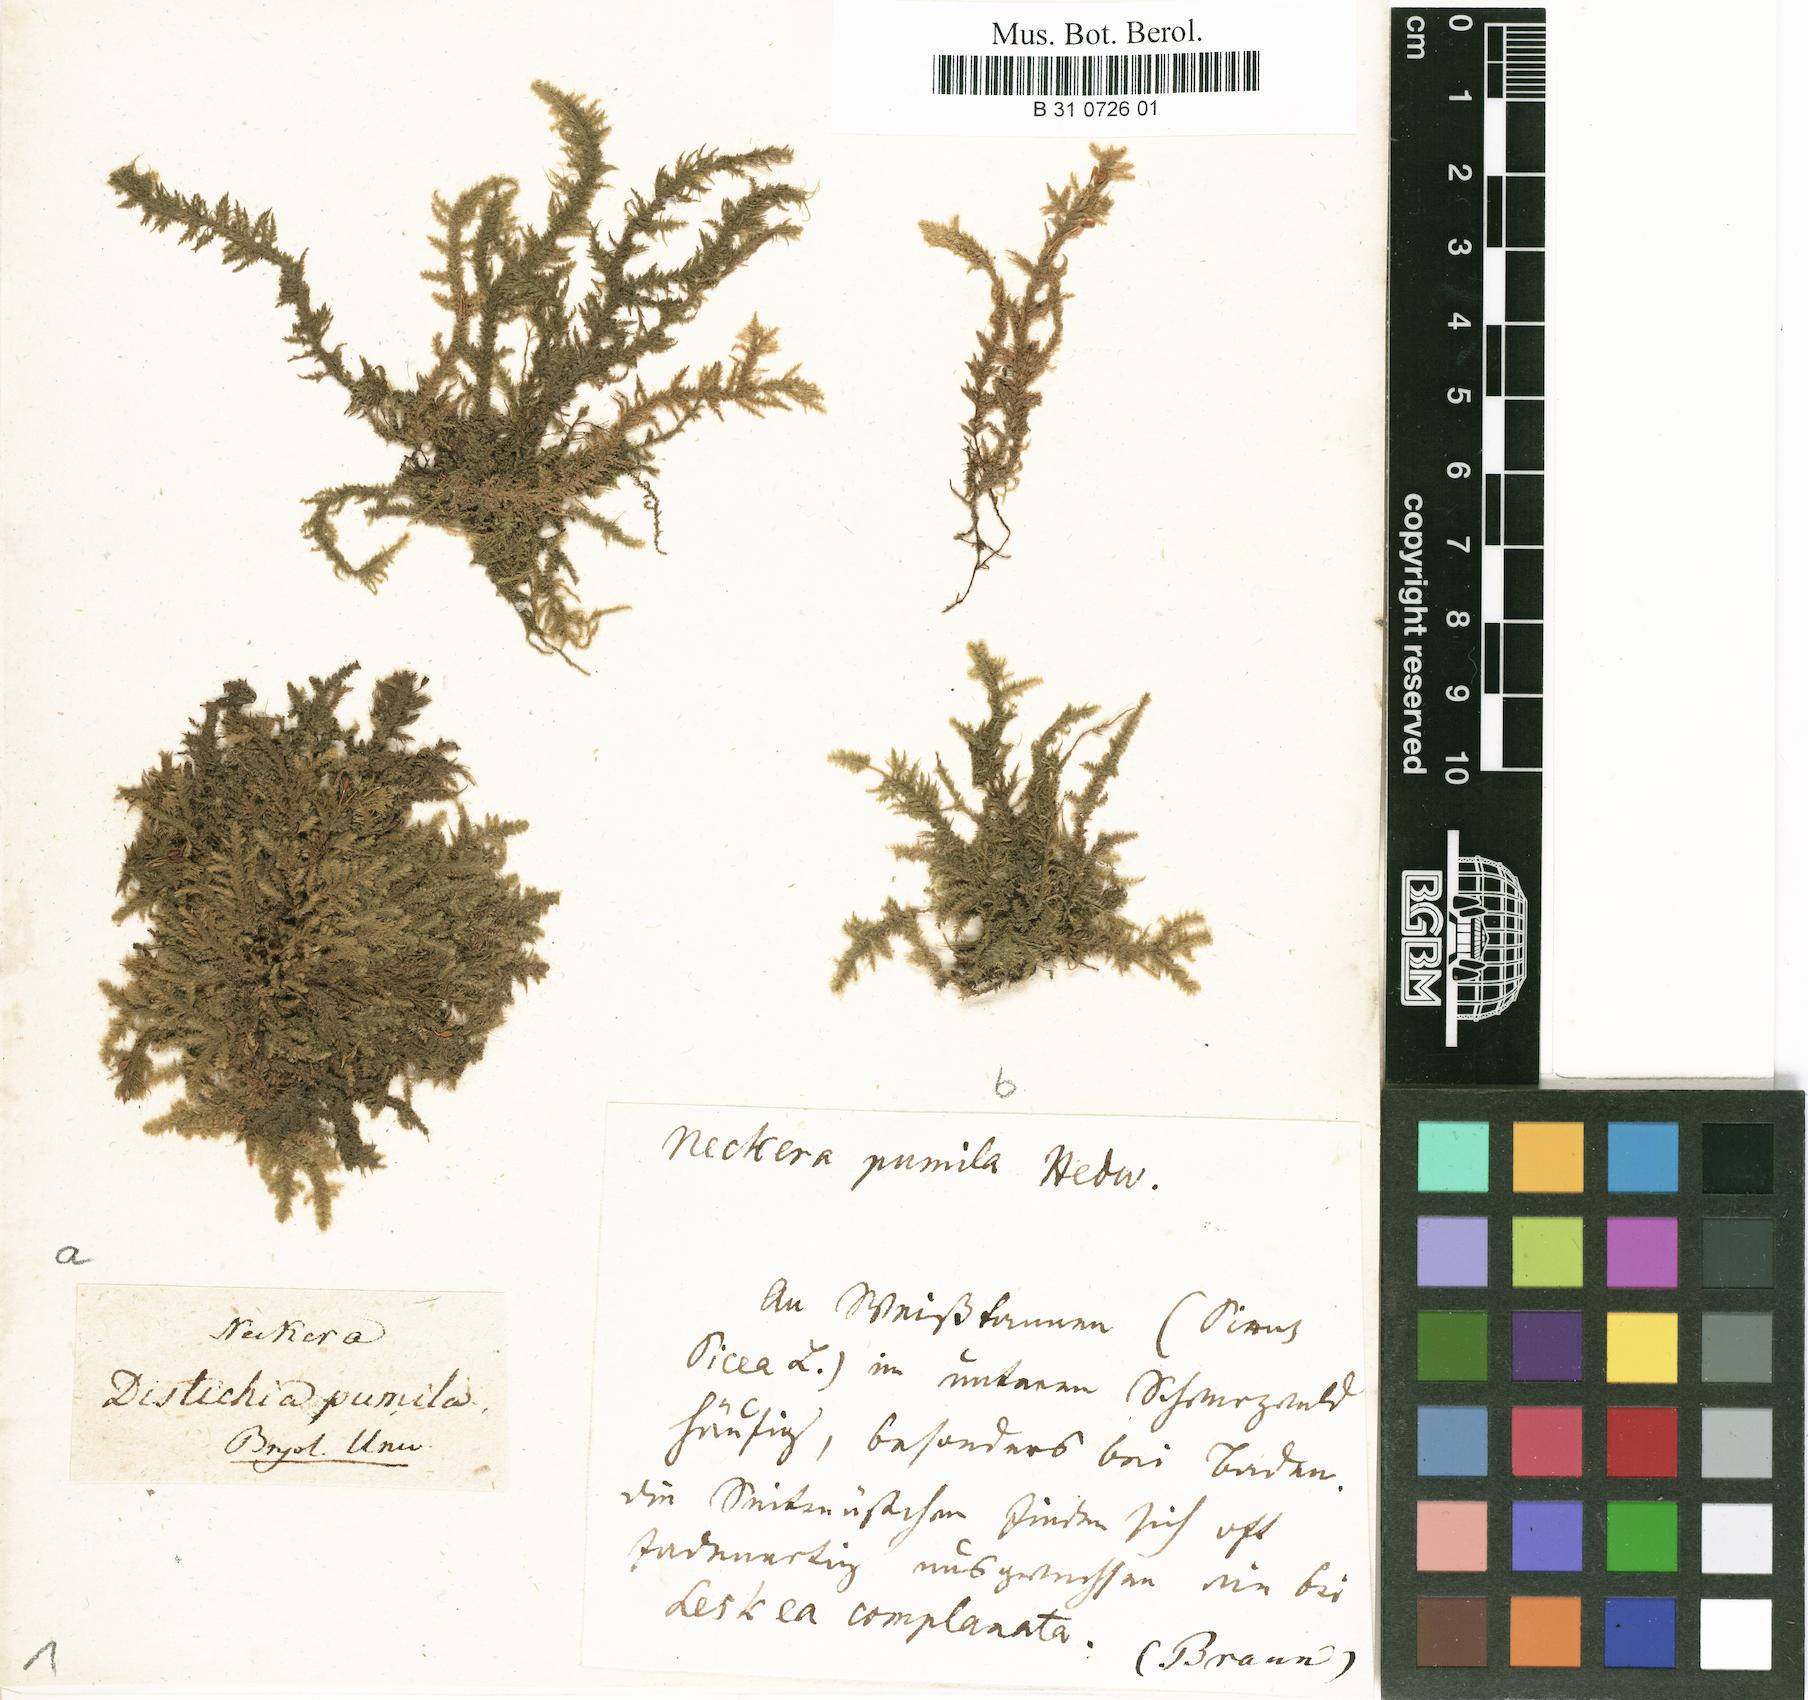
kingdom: Plantae
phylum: Bryophyta
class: Bryopsida
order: Hypnales
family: Neckeraceae
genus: Neckera
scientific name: Neckera pumila
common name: Dwarf neckera
